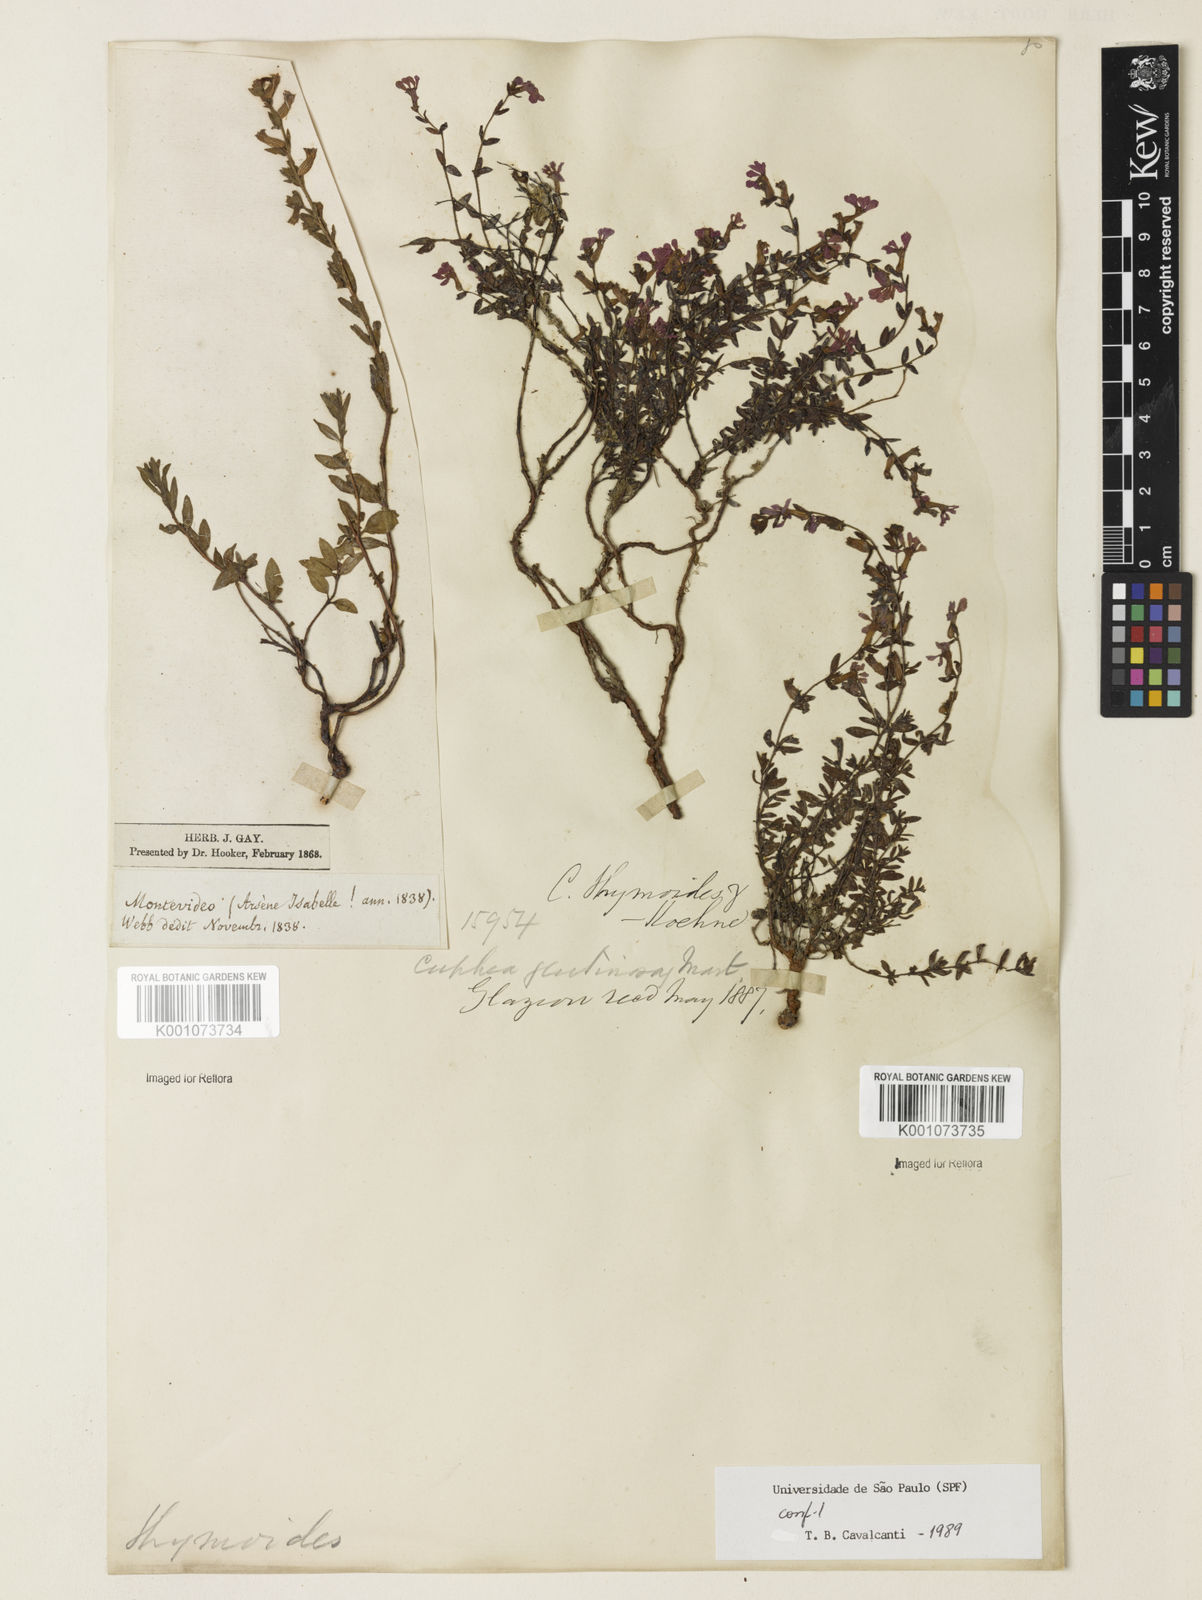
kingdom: Plantae
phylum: Tracheophyta
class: Magnoliopsida
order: Myrtales
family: Lythraceae
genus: Cuphea
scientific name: Cuphea thymoides
